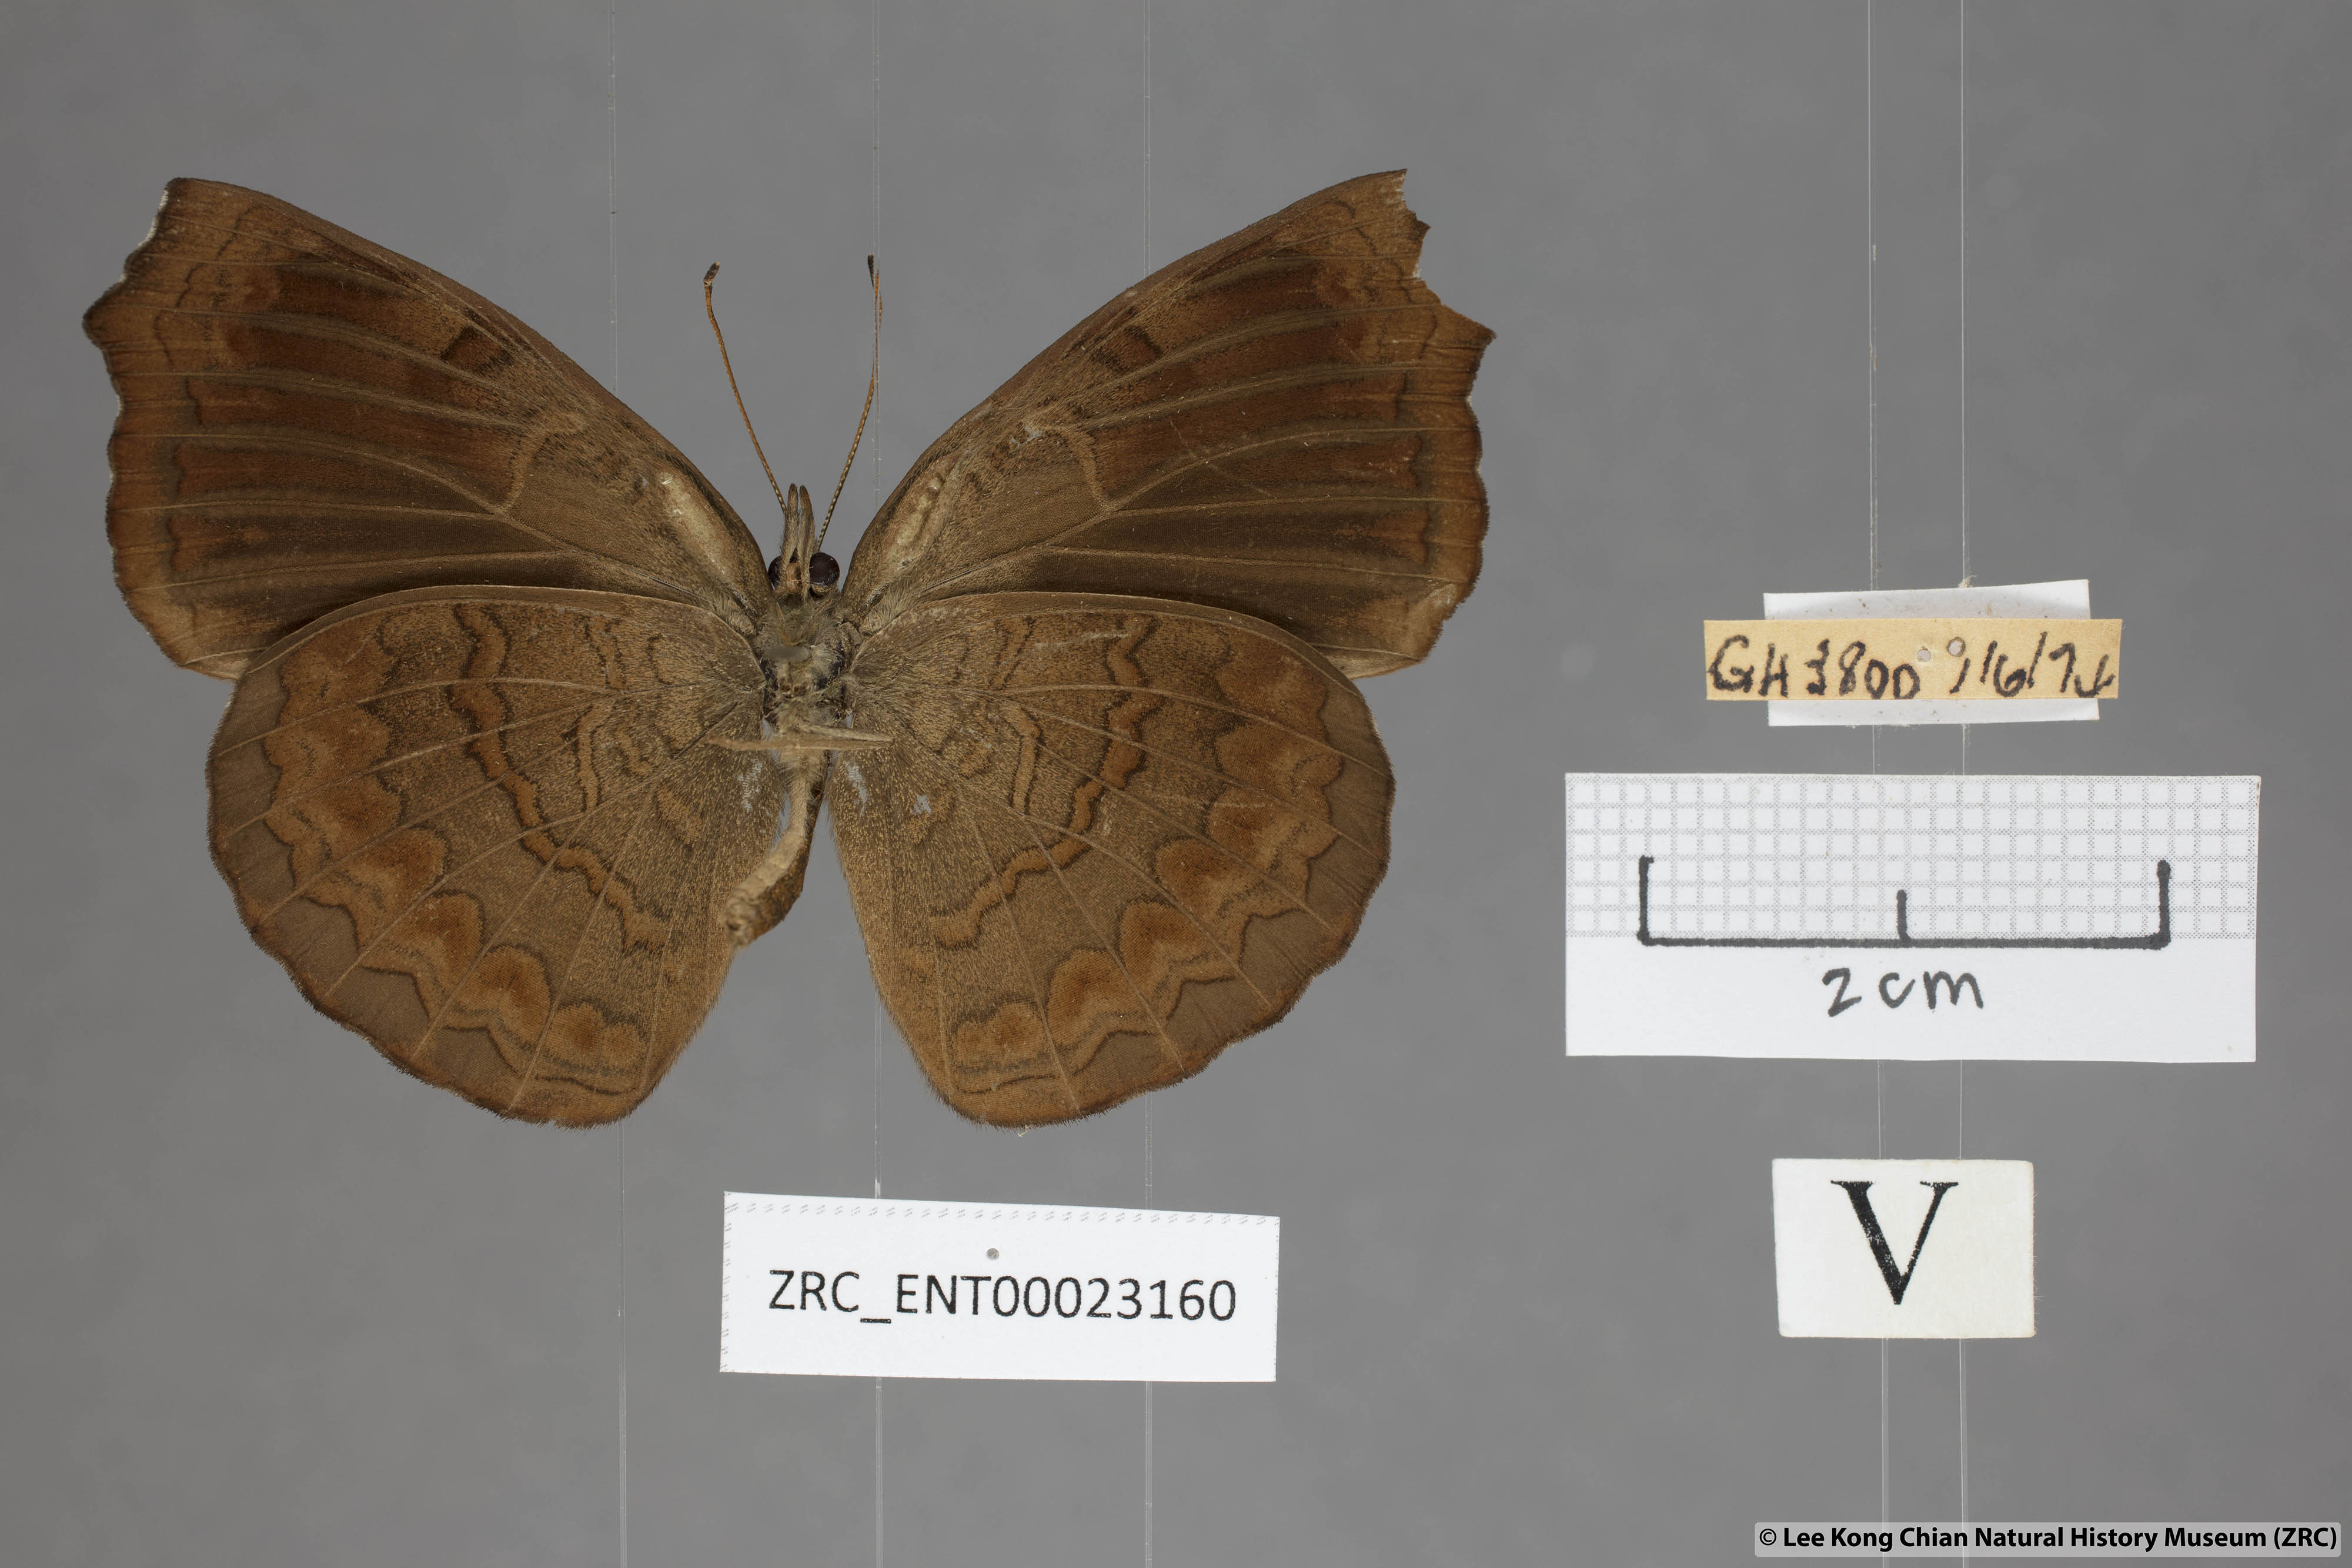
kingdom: Animalia
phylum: Arthropoda
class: Insecta
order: Lepidoptera
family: Nymphalidae
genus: Ariadne
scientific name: Ariadne isaeus
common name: Malayan castor
